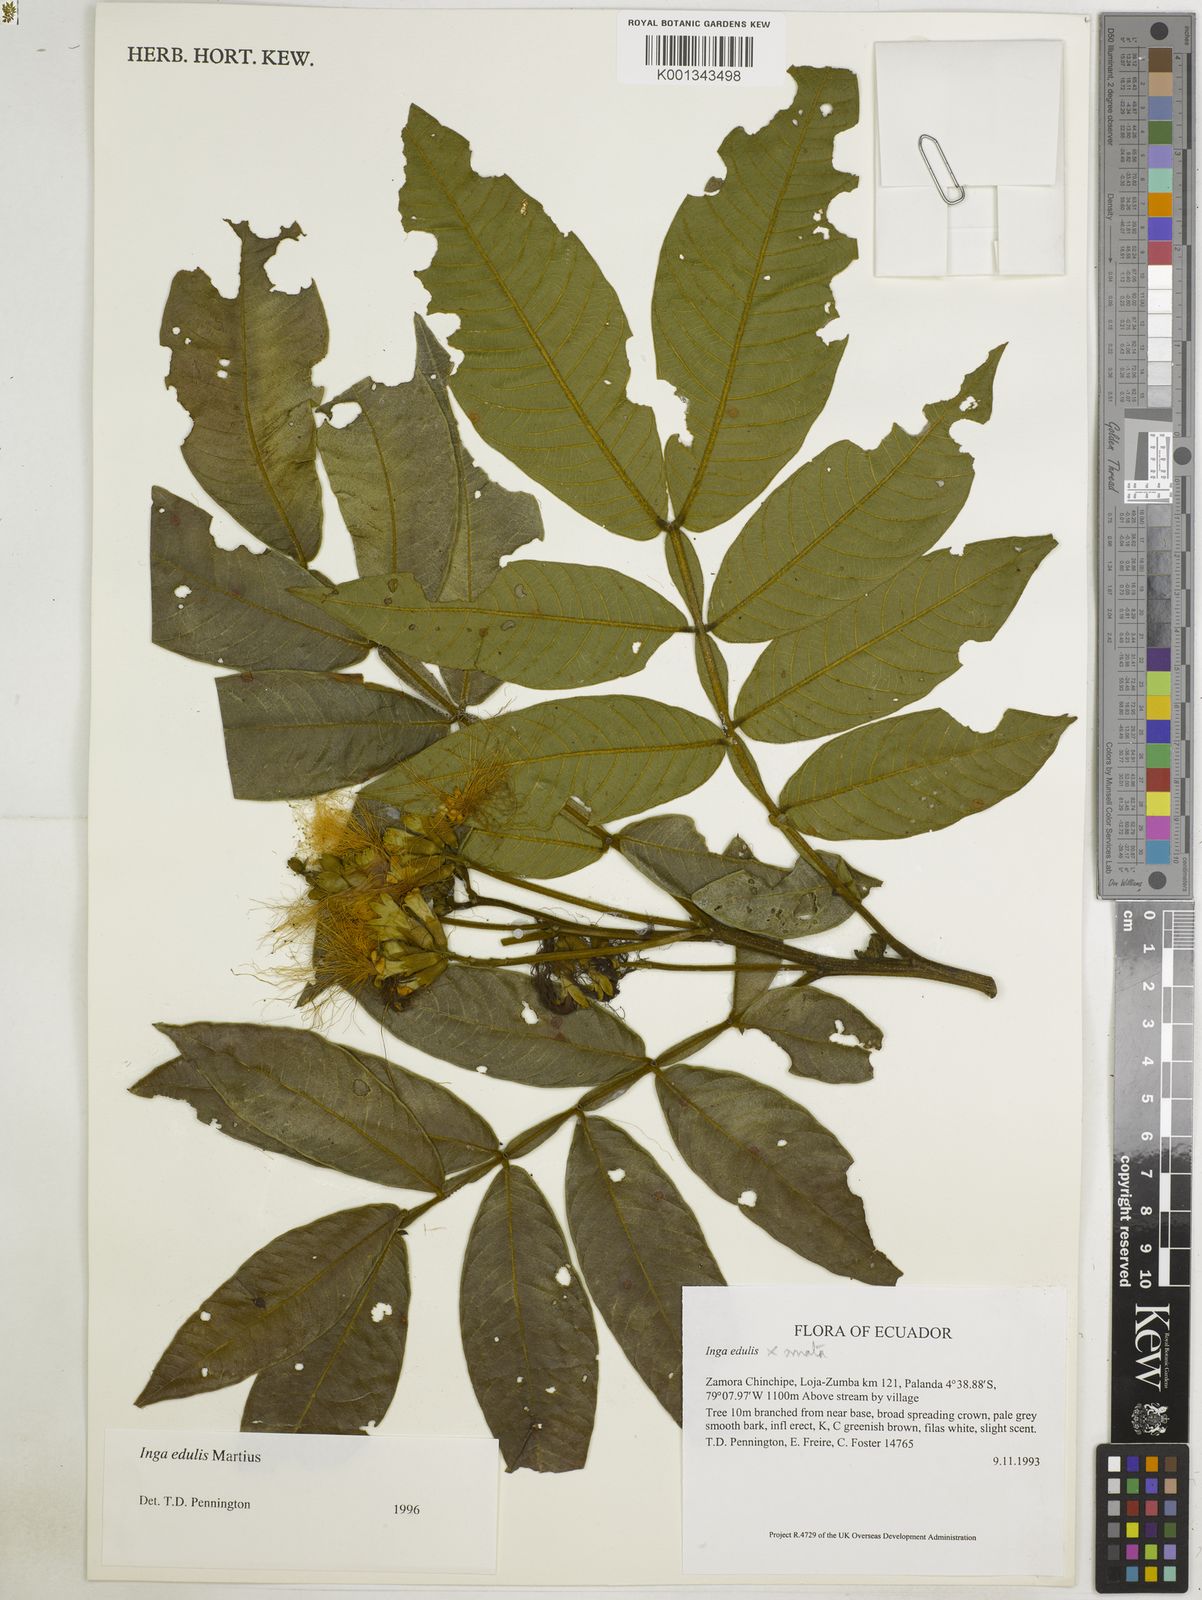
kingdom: Plantae
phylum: Tracheophyta
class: Magnoliopsida
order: Fabales
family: Fabaceae
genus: Inga
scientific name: Inga edulis
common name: Ice cream bean
